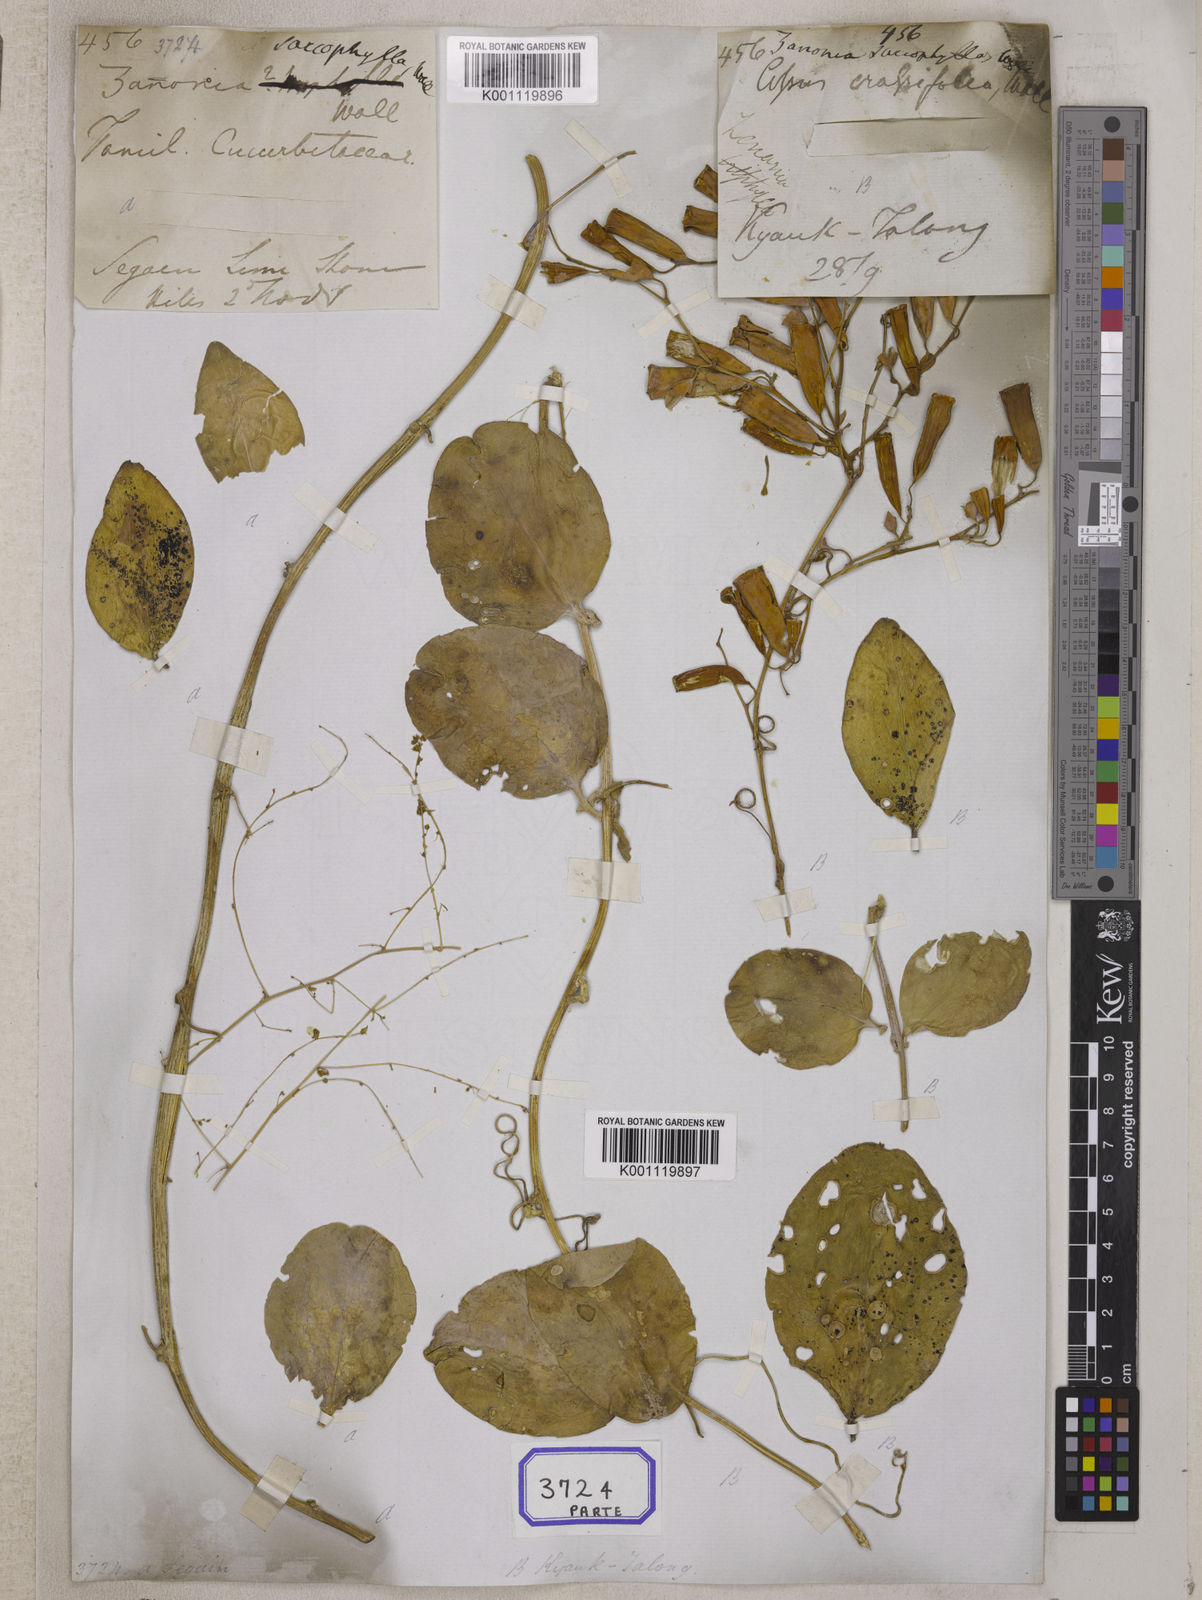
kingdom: Plantae
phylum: Tracheophyta
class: Magnoliopsida
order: Cucurbitales
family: Cucurbitaceae
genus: Neoalsomitra
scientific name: Neoalsomitra sarcophylla
